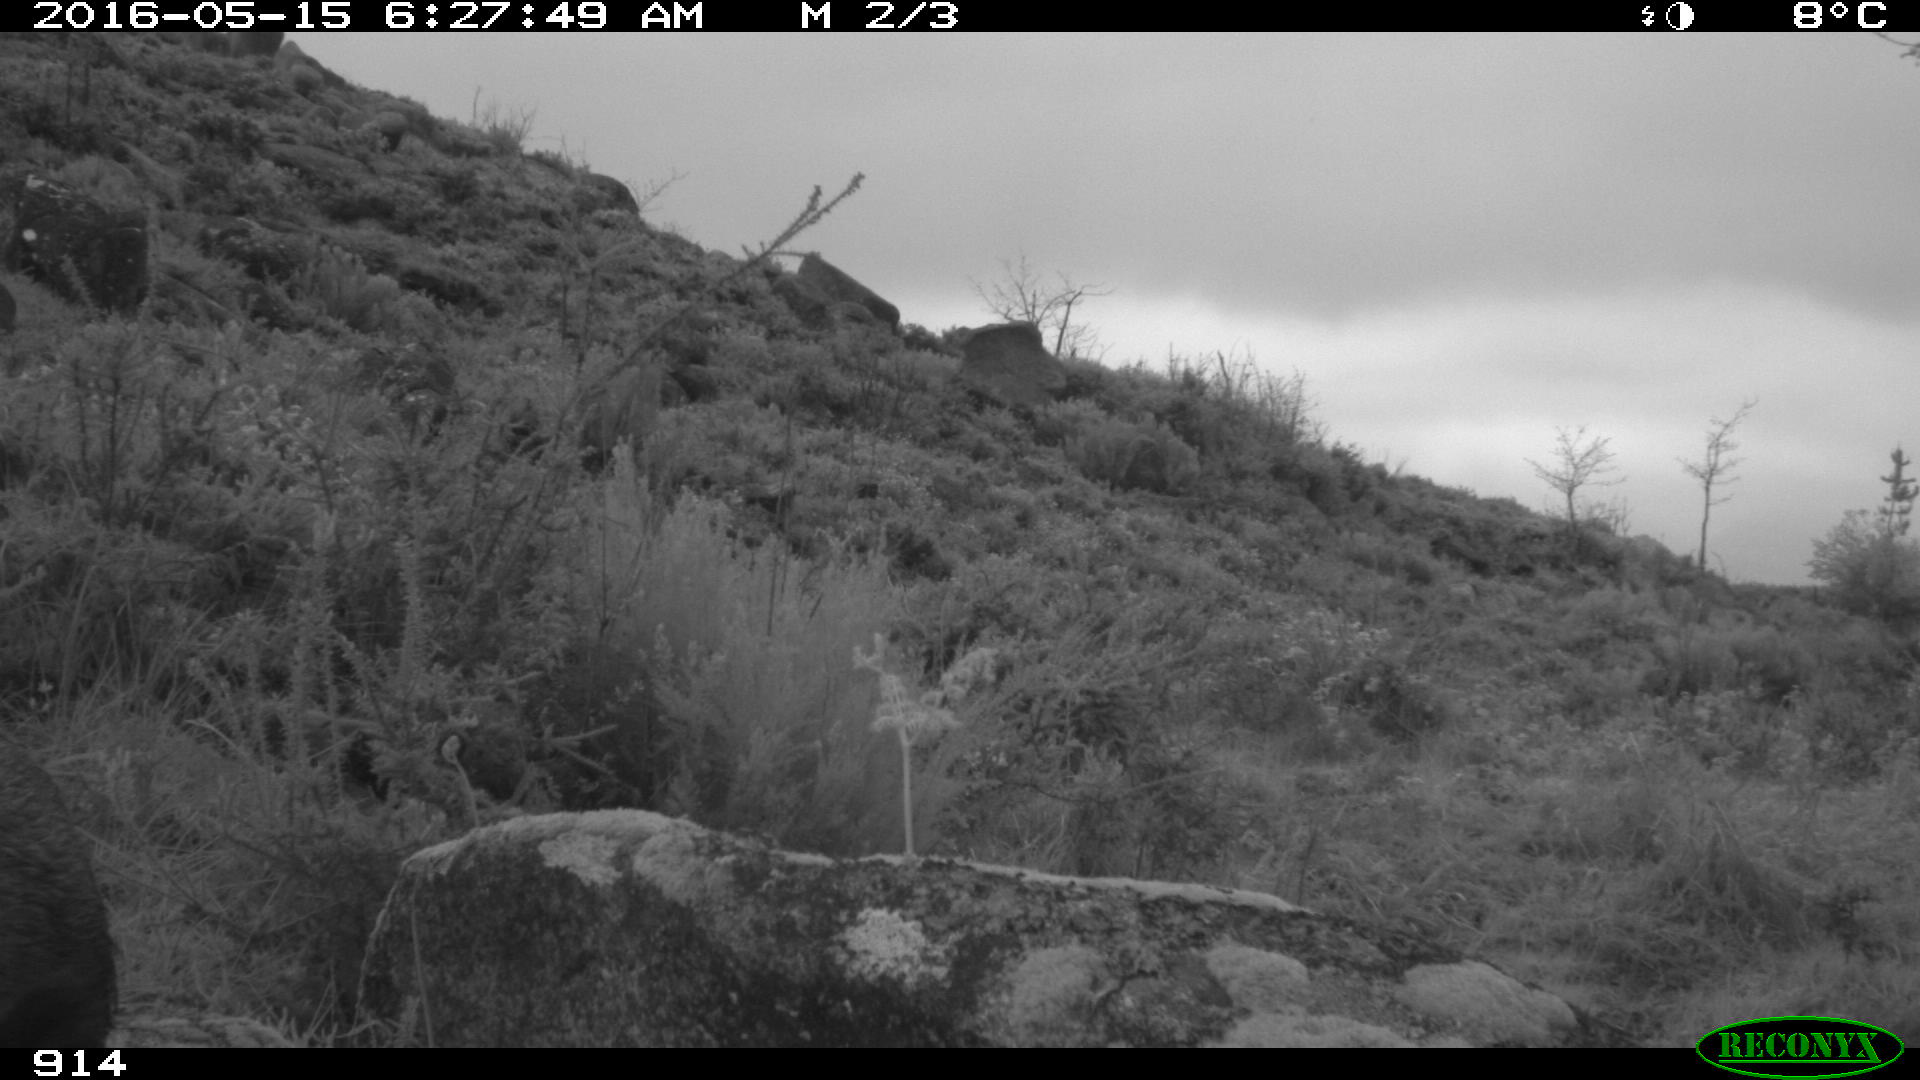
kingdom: Animalia
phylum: Chordata
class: Mammalia
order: Artiodactyla
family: Suidae
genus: Sus
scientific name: Sus scrofa
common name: Wild boar
